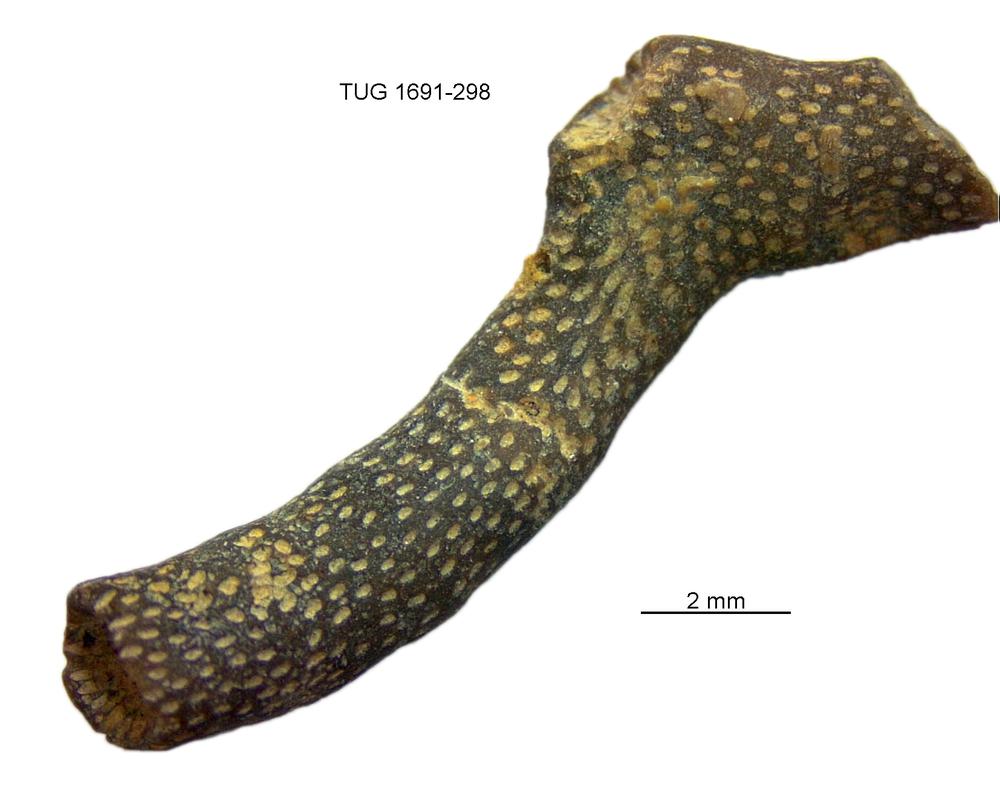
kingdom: Animalia
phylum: Bryozoa
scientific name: Bryozoa
